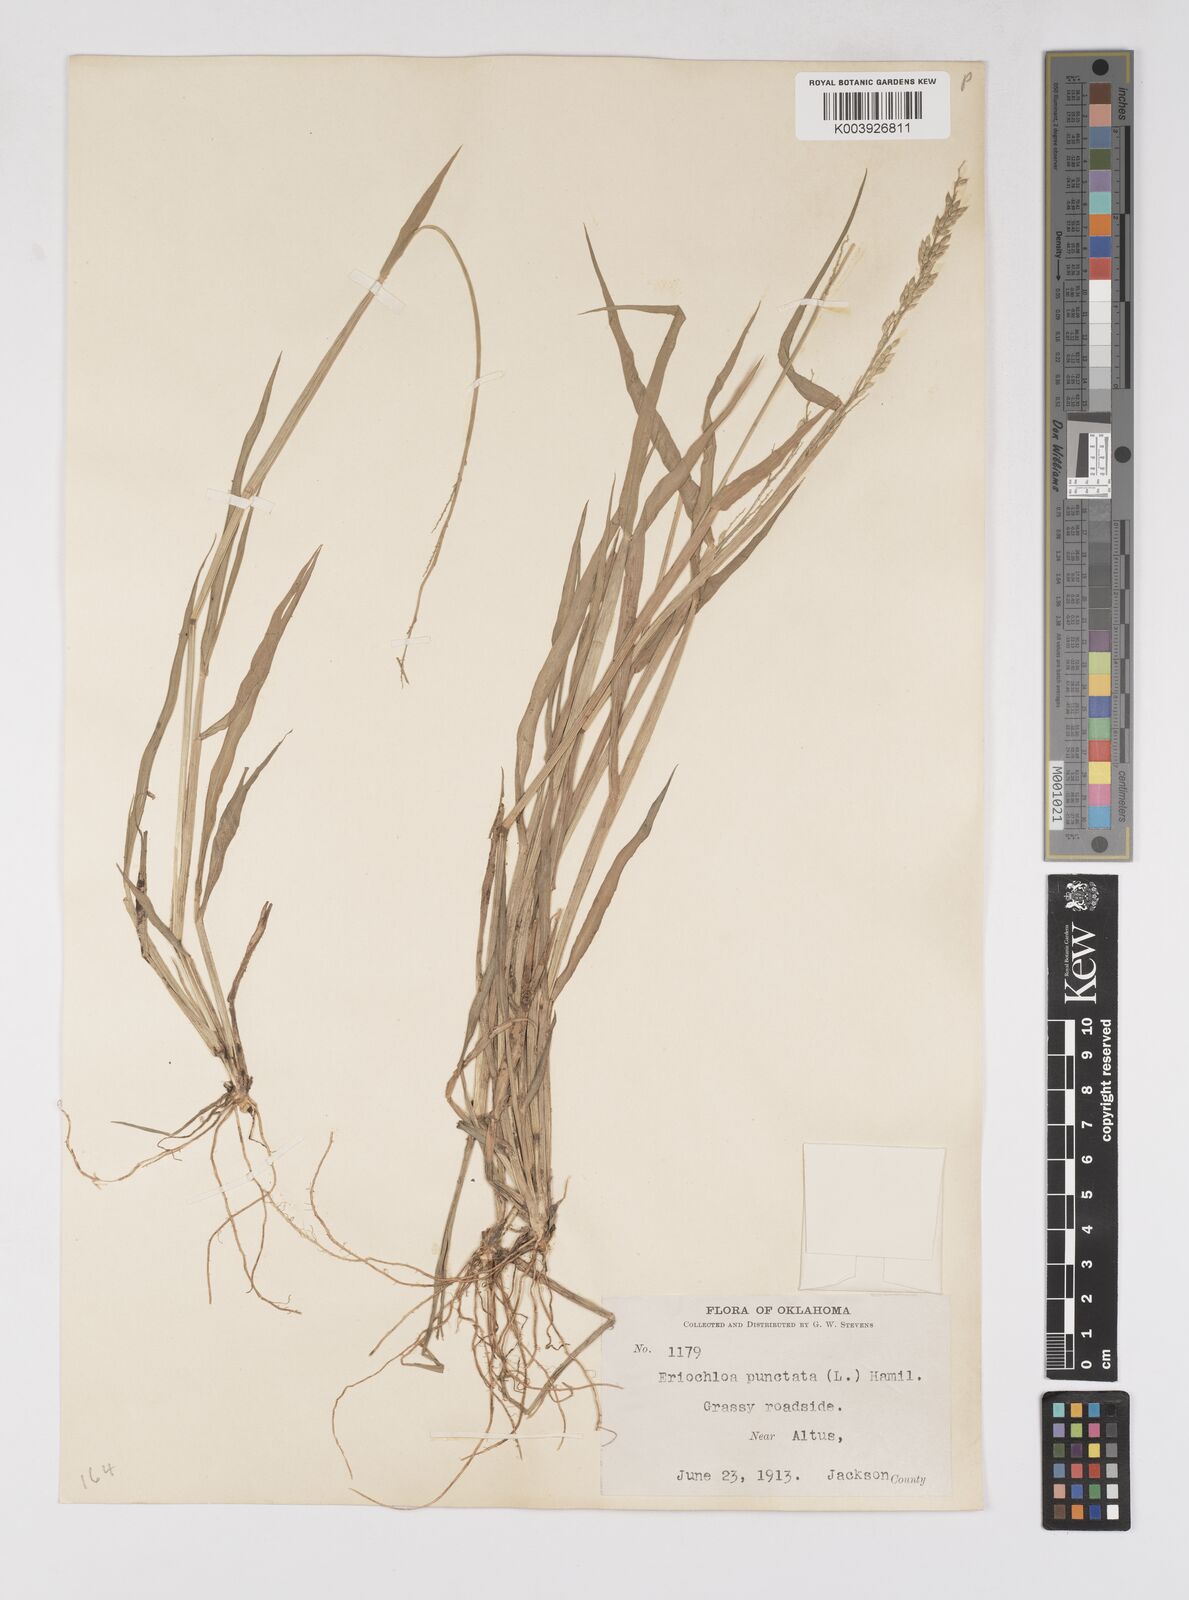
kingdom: Plantae
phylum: Tracheophyta
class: Liliopsida
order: Poales
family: Poaceae
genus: Eriochloa
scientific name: Eriochloa contracta
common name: Prairie cup grass
